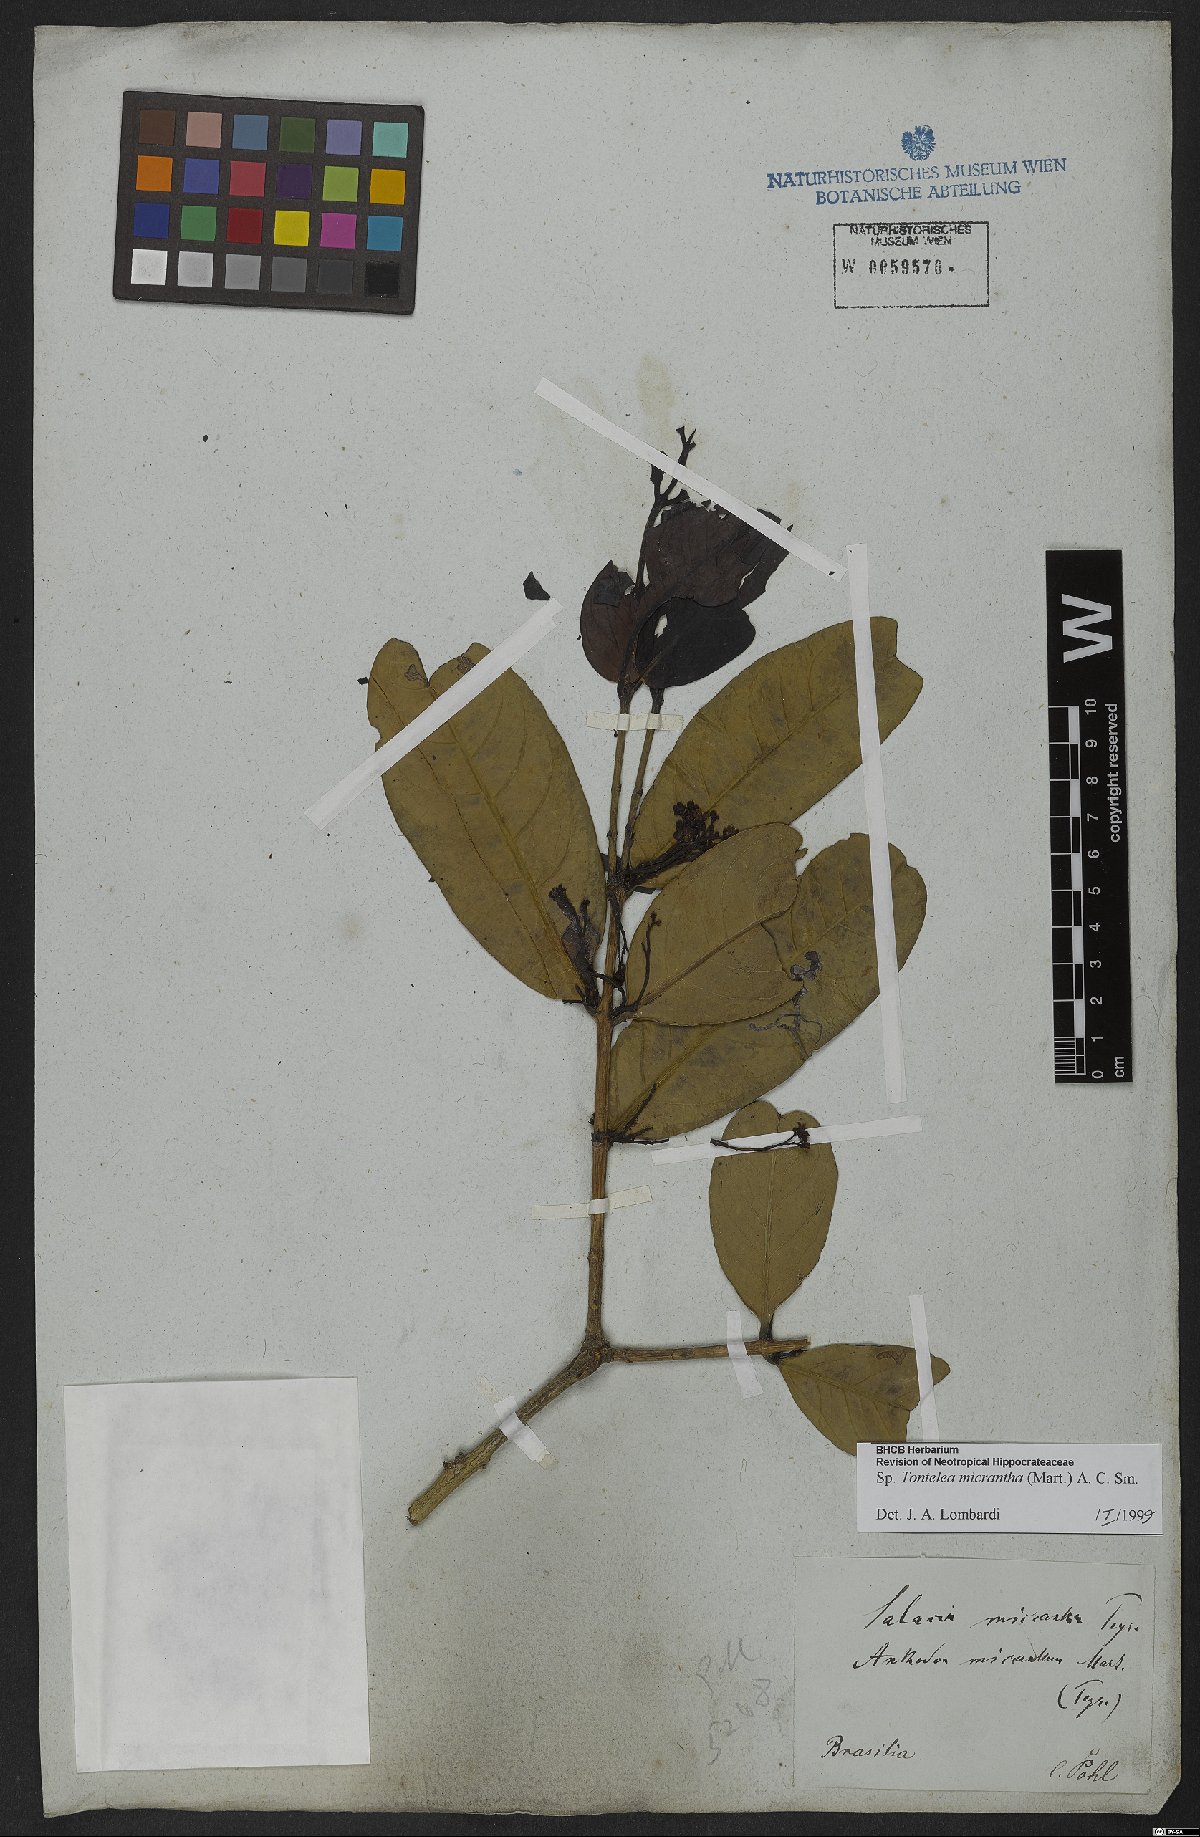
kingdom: Plantae
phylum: Tracheophyta
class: Magnoliopsida
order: Celastrales
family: Celastraceae
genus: Tontelea
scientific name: Tontelea micrantha
